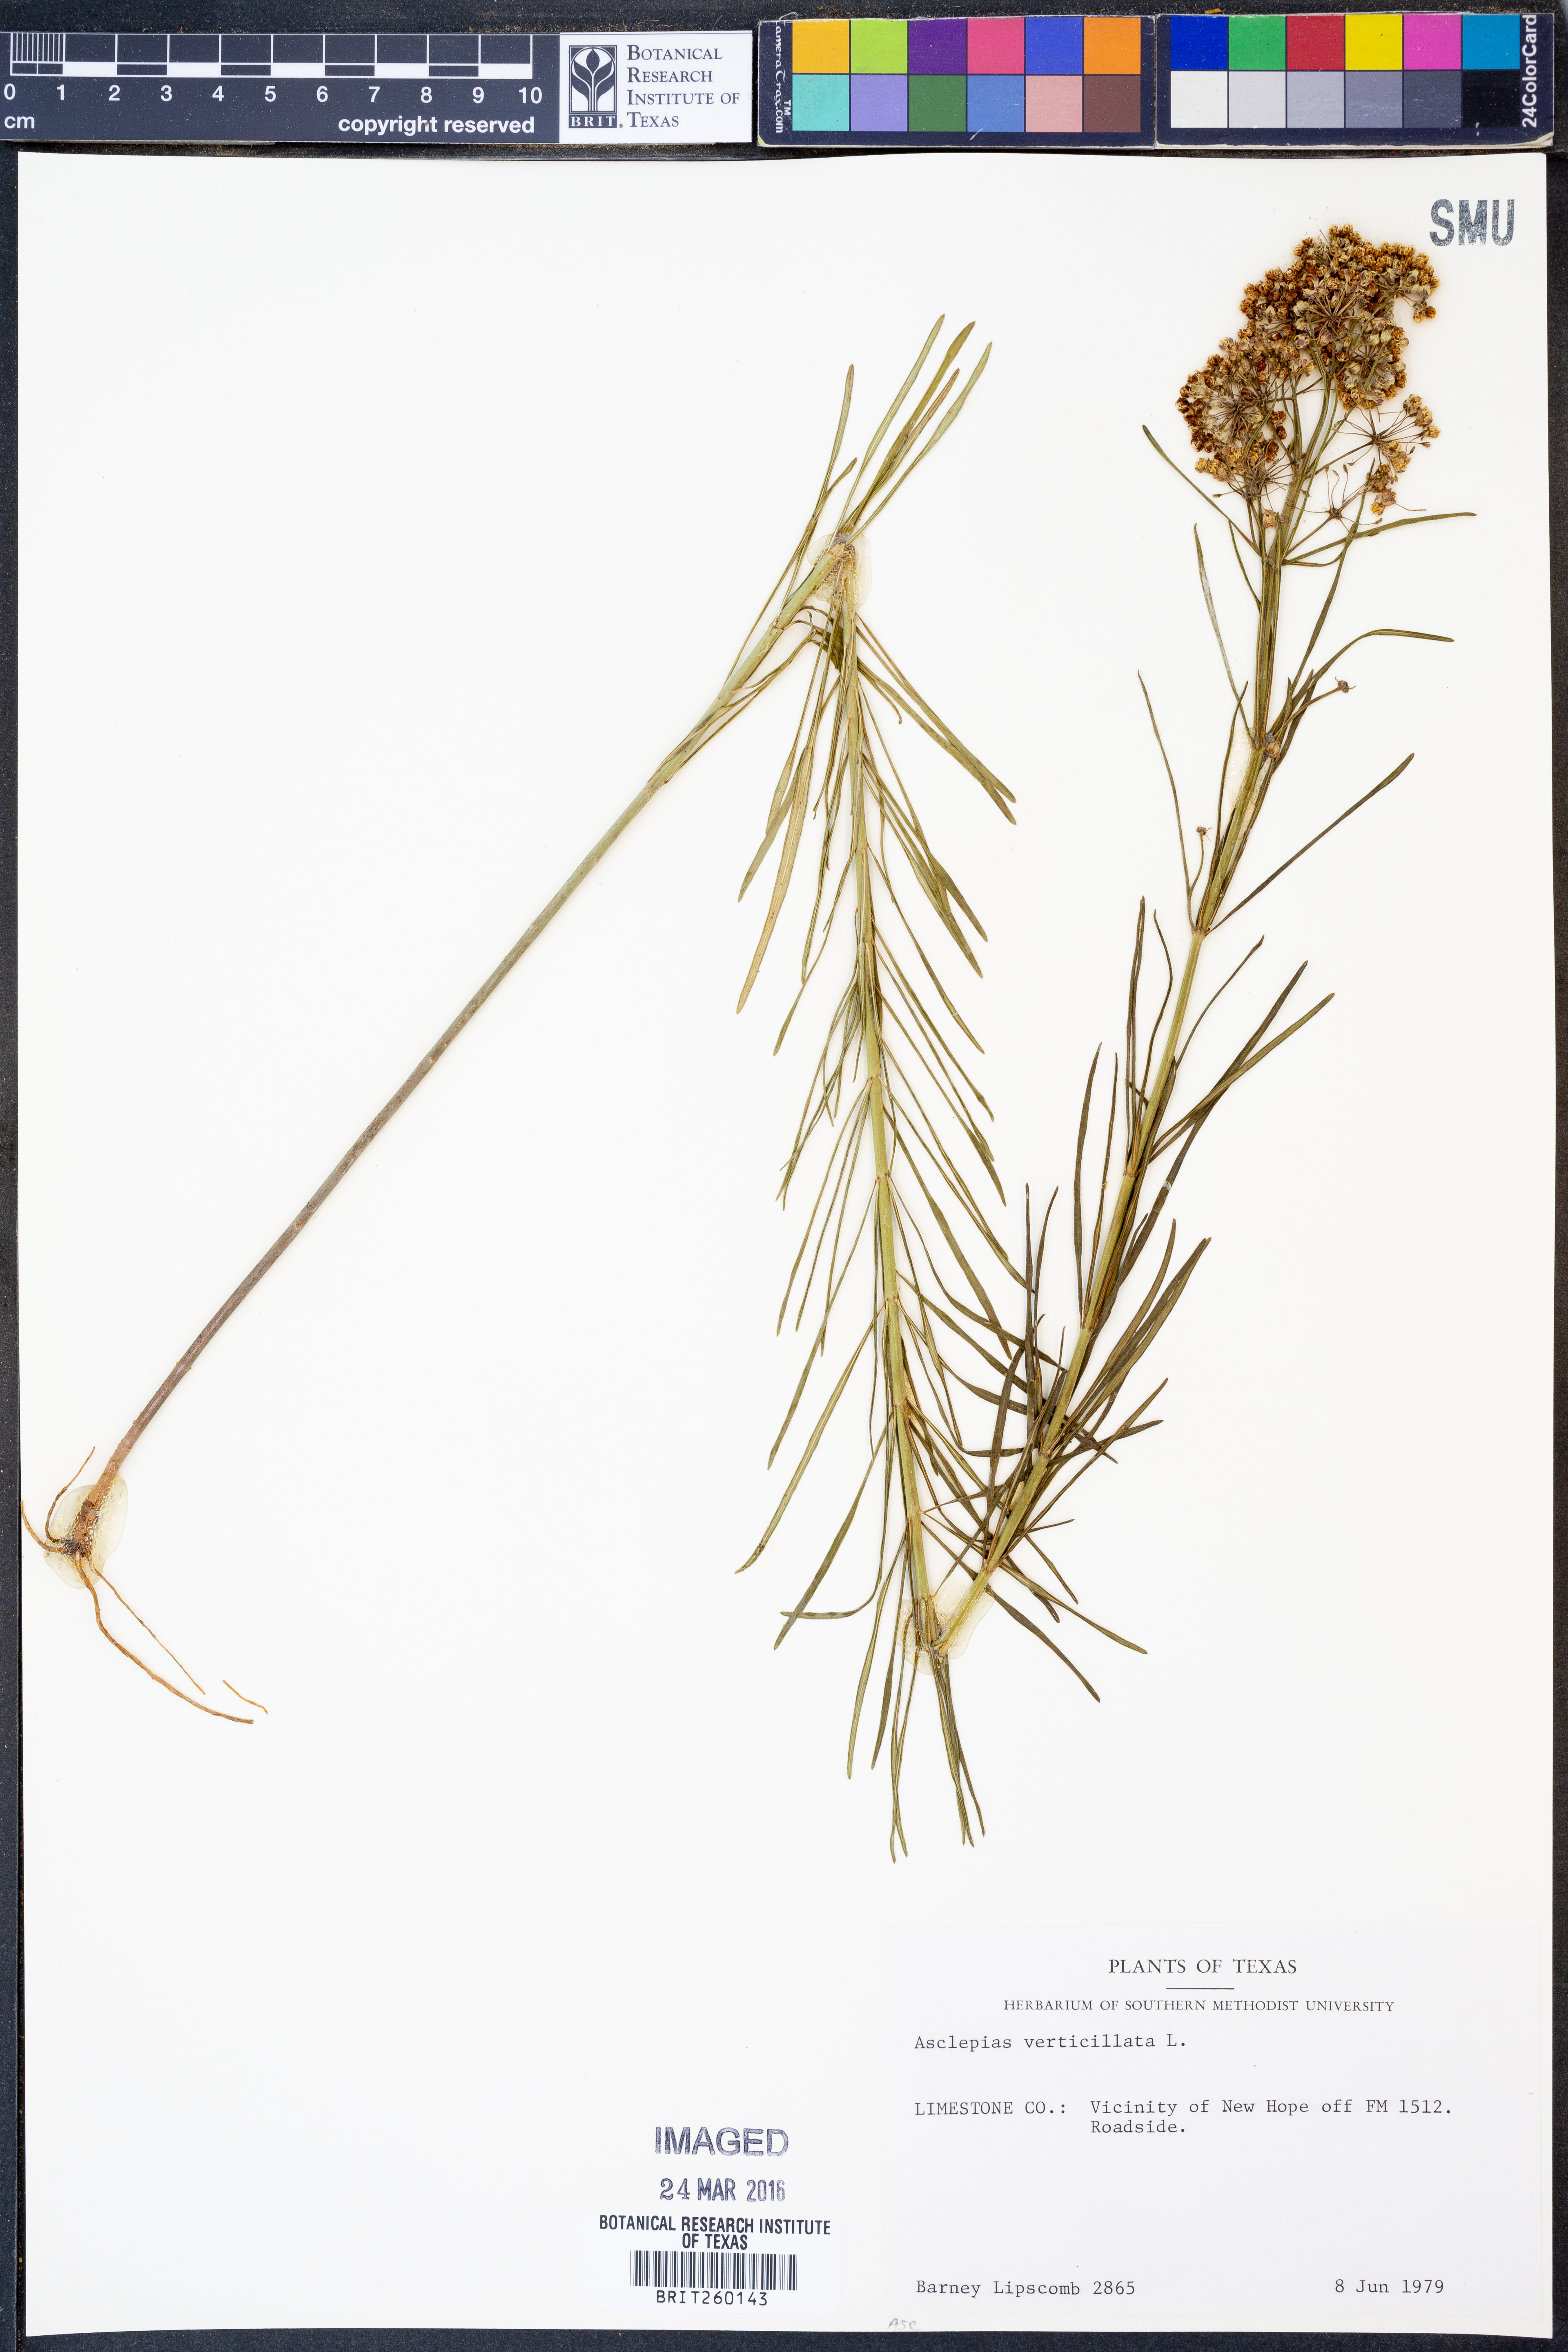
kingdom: Plantae
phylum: Tracheophyta
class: Magnoliopsida
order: Gentianales
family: Apocynaceae
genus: Asclepias
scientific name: Asclepias verticillata
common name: Eastern whorled milkweed
